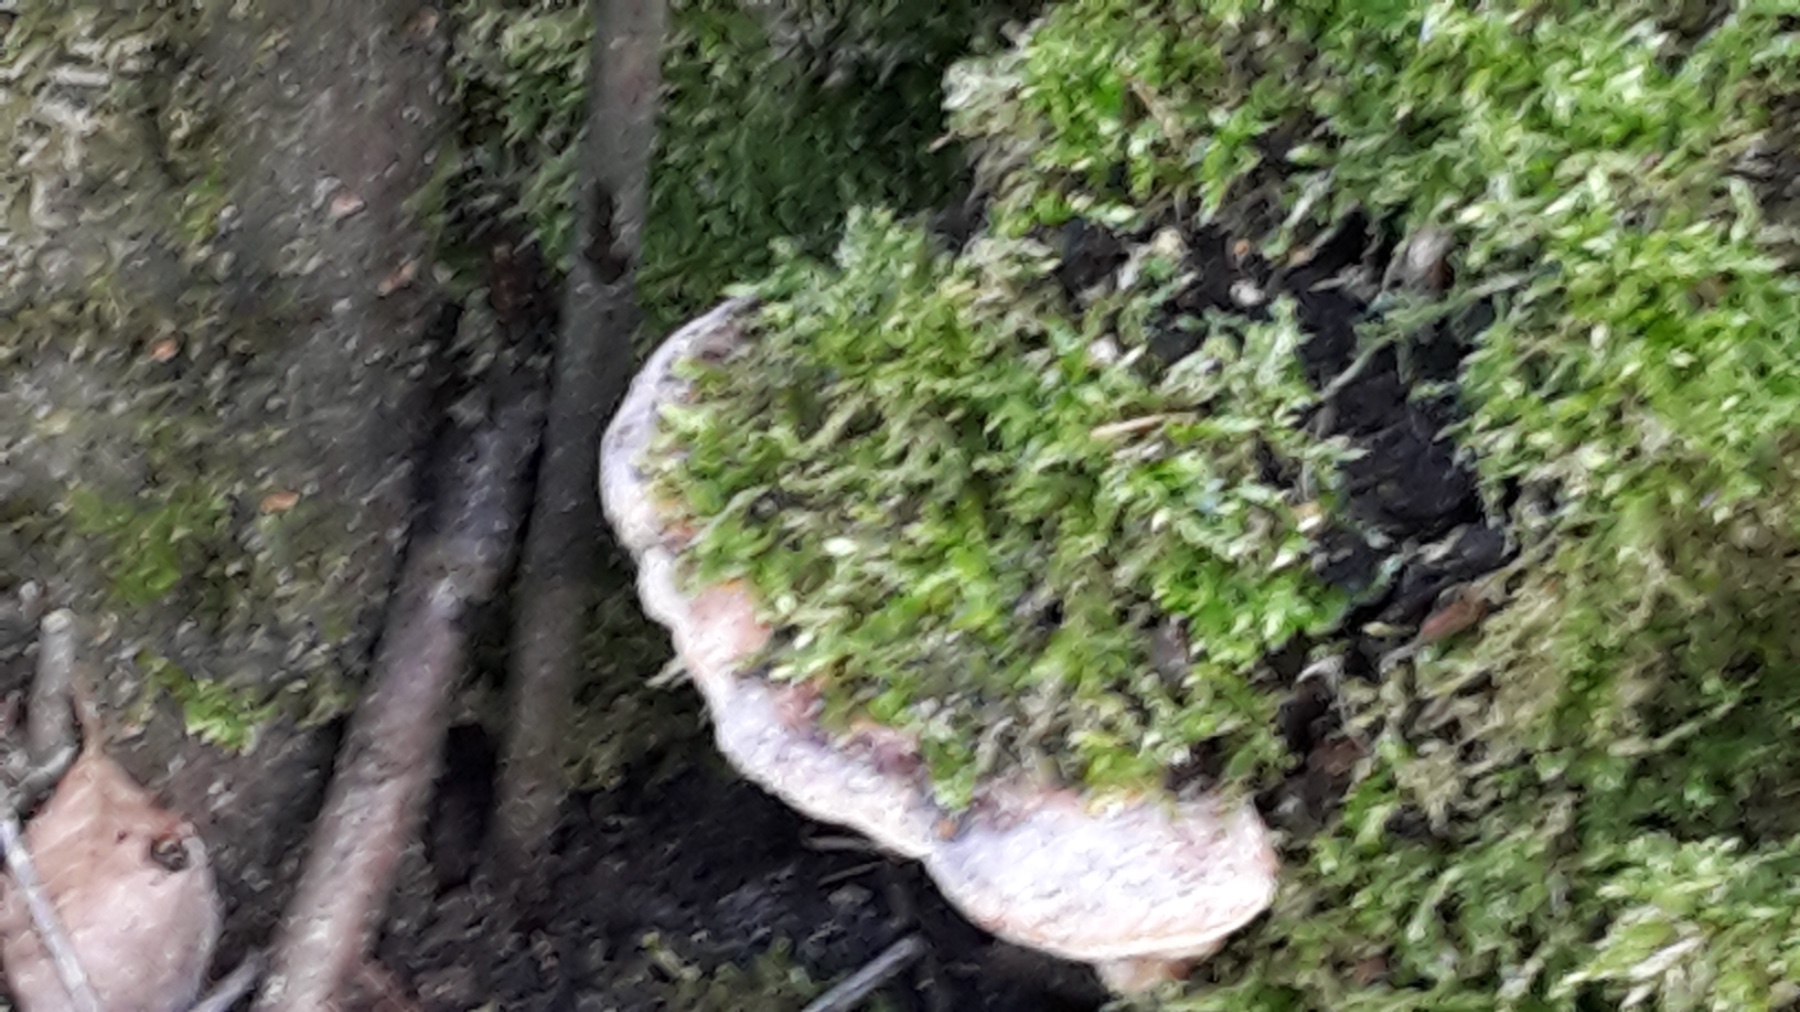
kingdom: Fungi
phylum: Basidiomycota
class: Agaricomycetes
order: Hymenochaetales
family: Hymenochaetaceae
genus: Phellinus
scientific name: Phellinus pomaceus
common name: blomme-ildporesvamp
